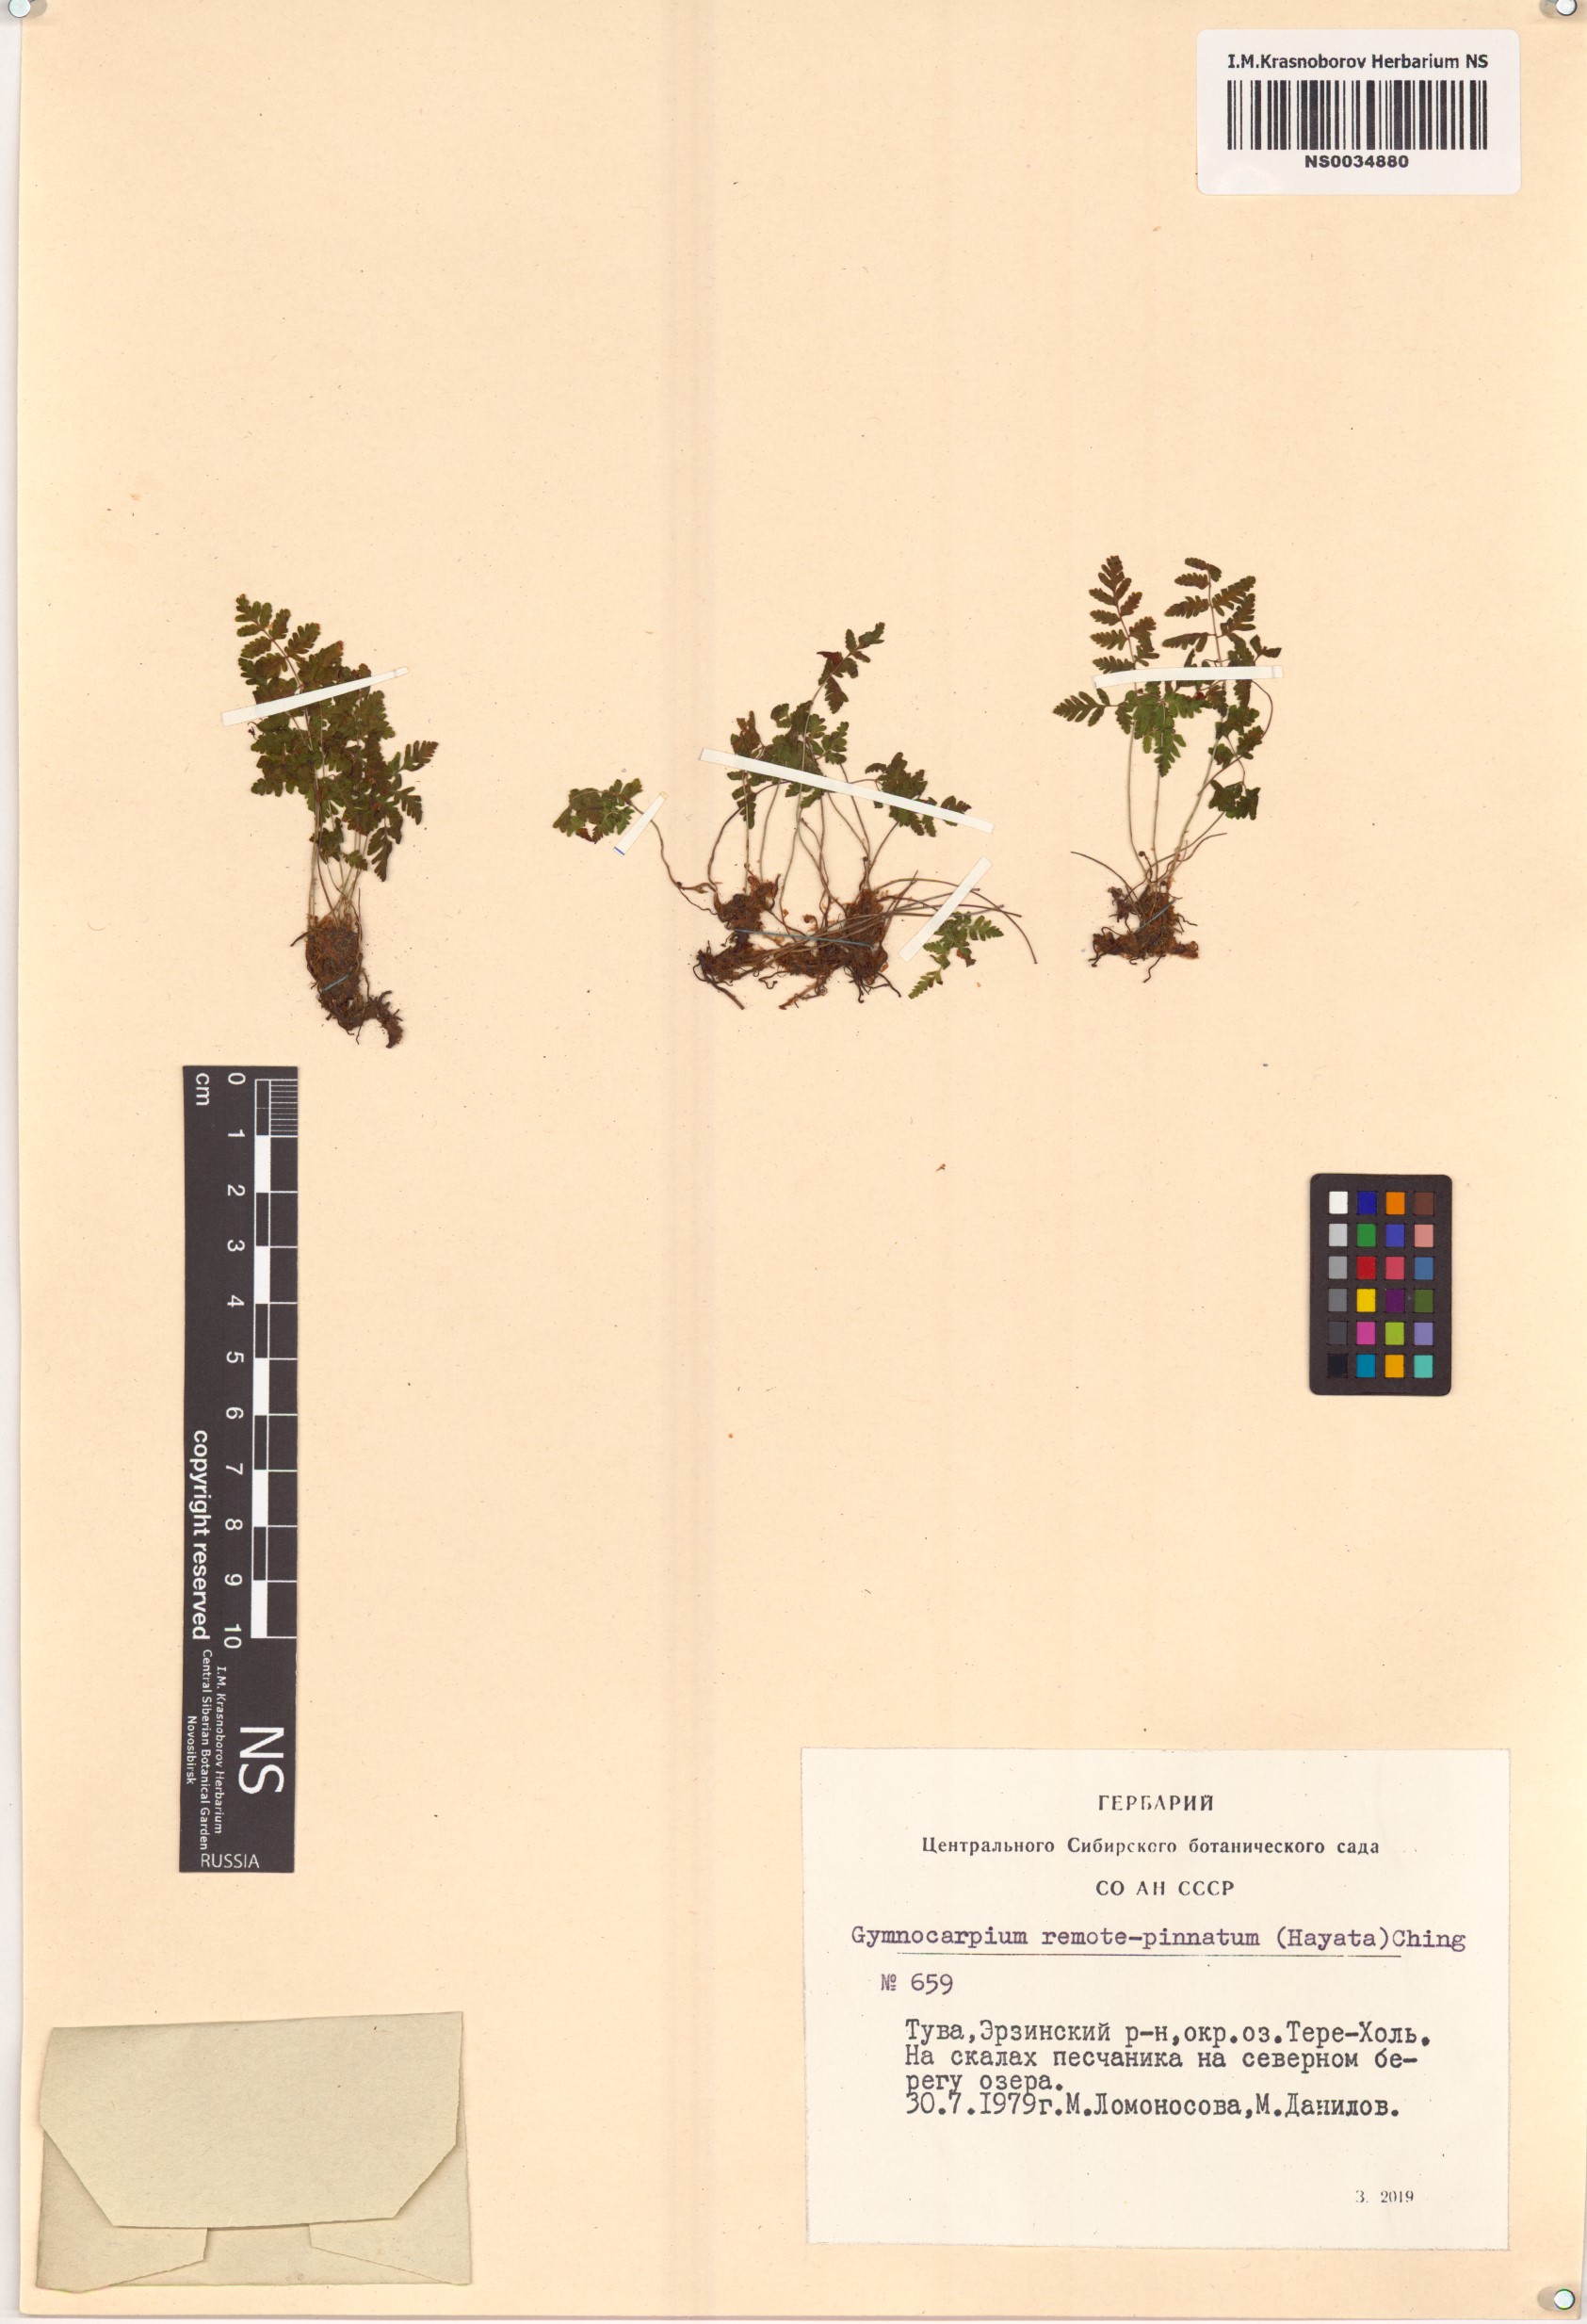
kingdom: Plantae
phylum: Tracheophyta
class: Polypodiopsida
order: Polypodiales
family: Cystopteridaceae
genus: Gymnocarpium
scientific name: Gymnocarpium remotepinnatum
